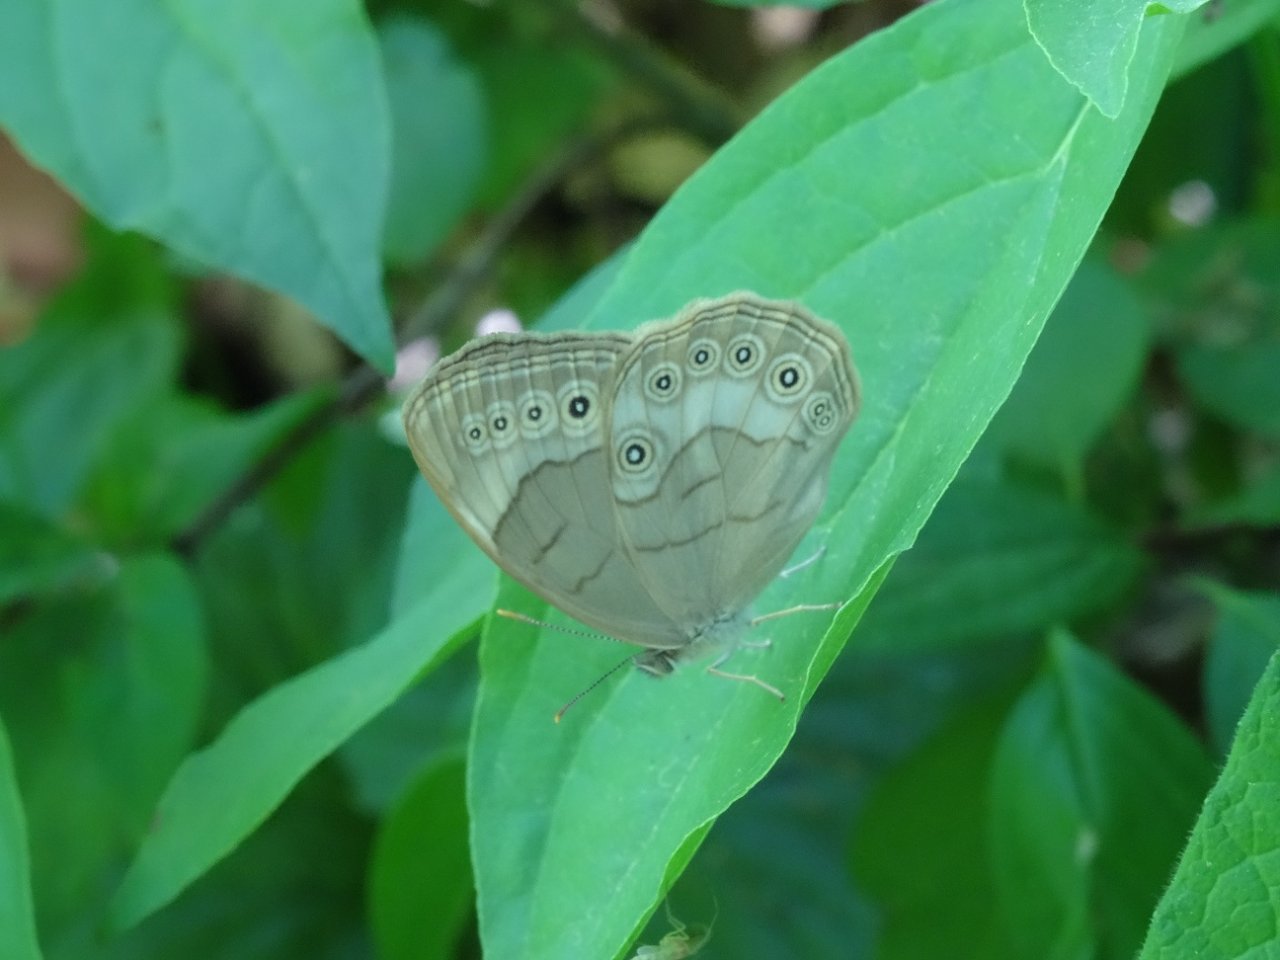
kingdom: Animalia
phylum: Arthropoda
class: Insecta
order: Lepidoptera
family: Nymphalidae
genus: Lethe
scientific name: Lethe eurydice
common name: Appalachian Eyed Brown
